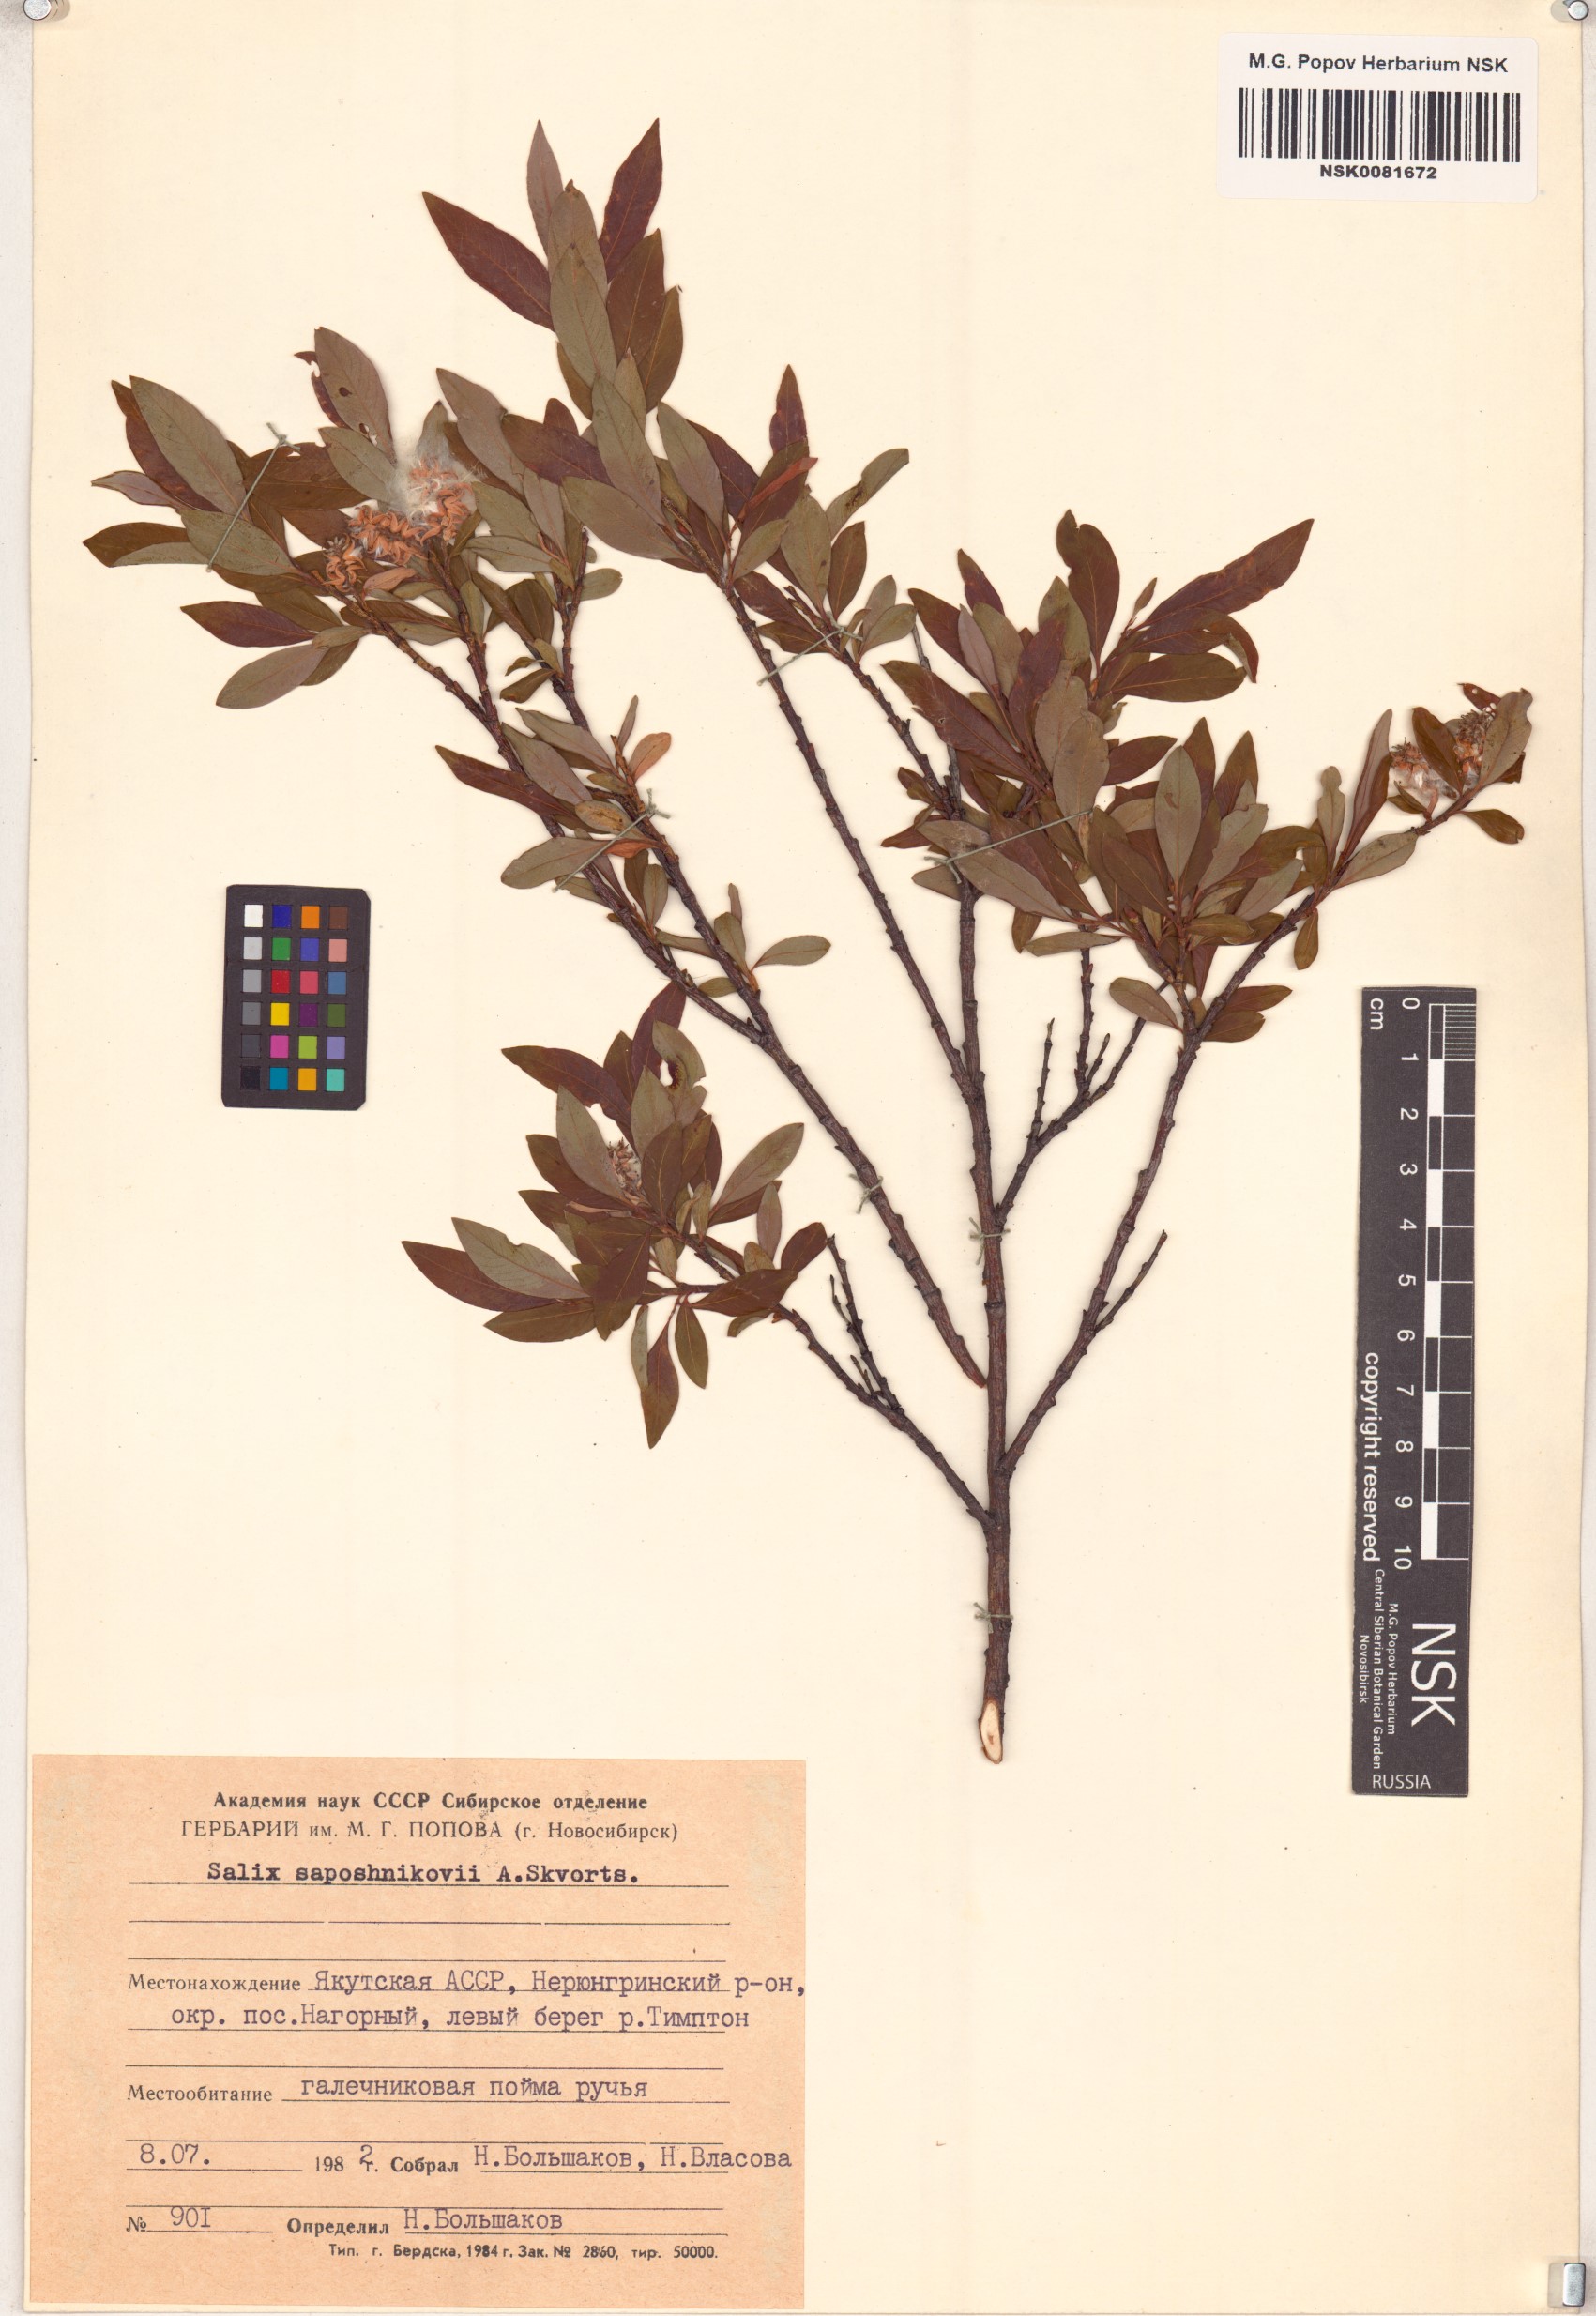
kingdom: Plantae
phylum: Tracheophyta
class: Magnoliopsida
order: Malpighiales
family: Salicaceae
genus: Salix
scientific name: Salix saposhnikovii
